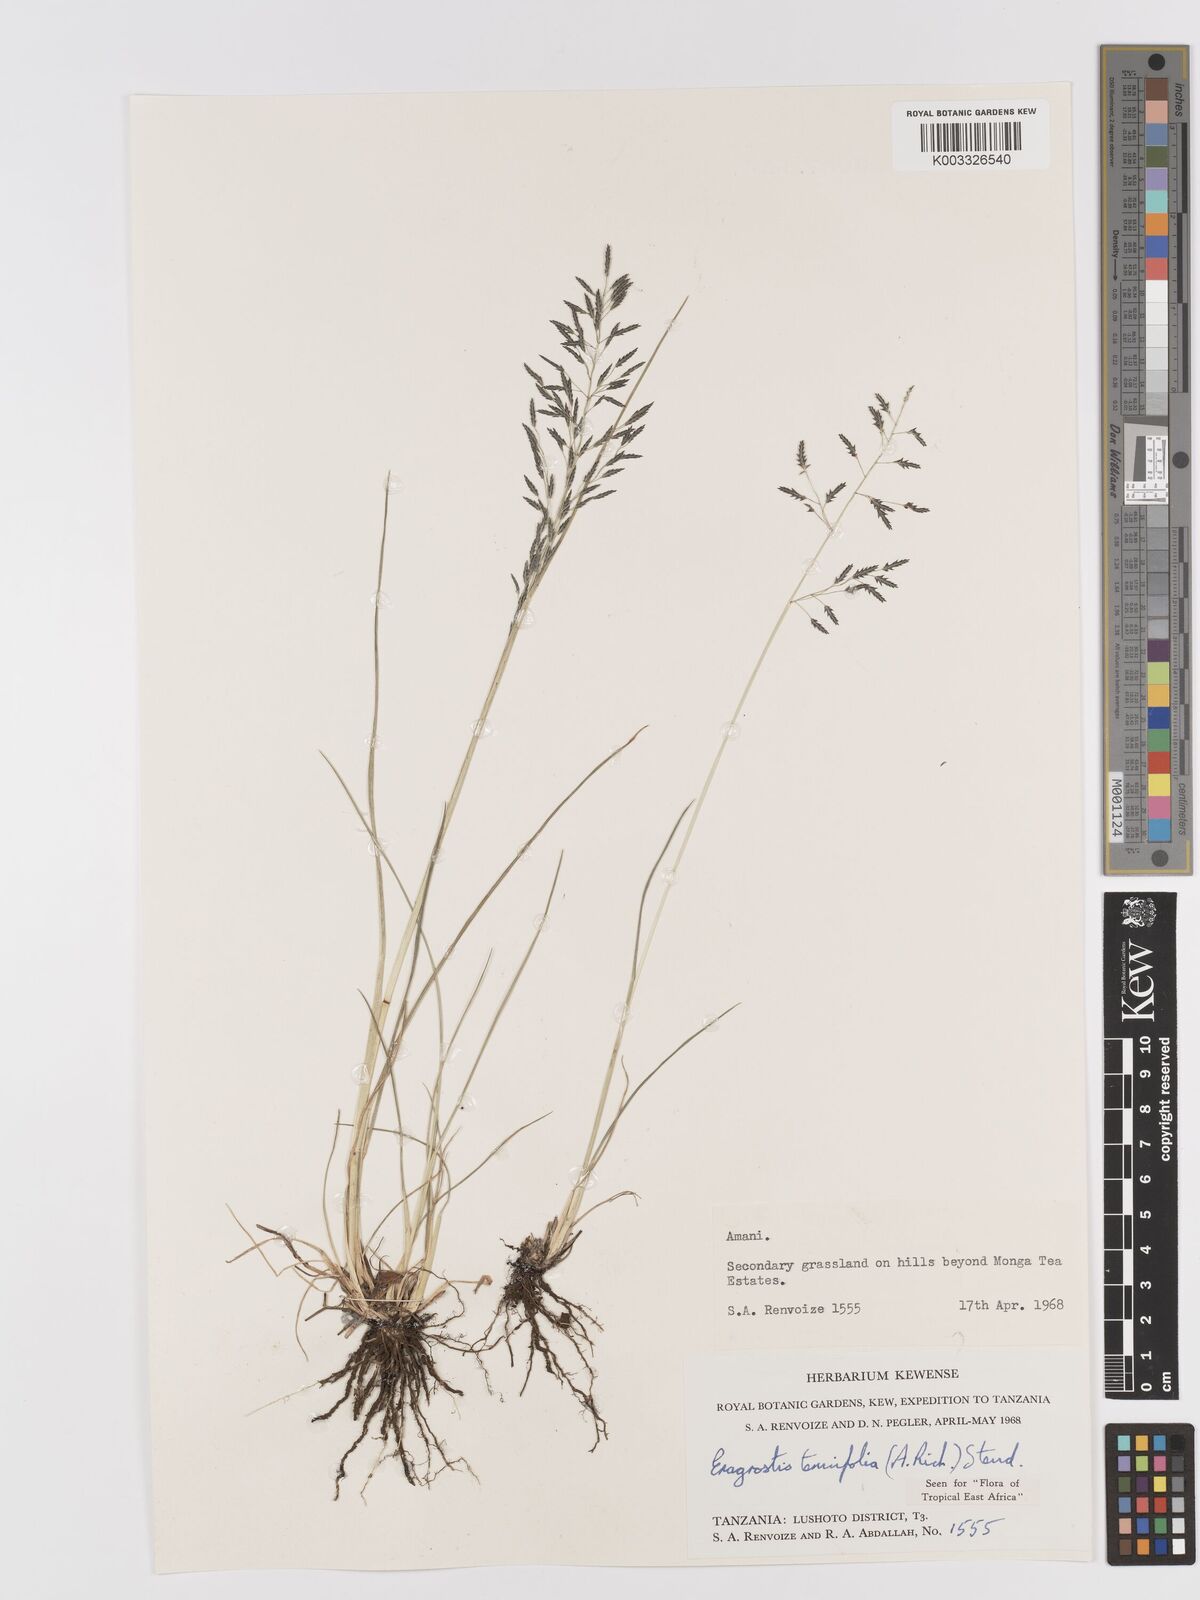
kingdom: Plantae
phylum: Tracheophyta
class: Liliopsida
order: Poales
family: Poaceae
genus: Eragrostis
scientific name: Eragrostis tenuifolia
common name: Elastic grass
